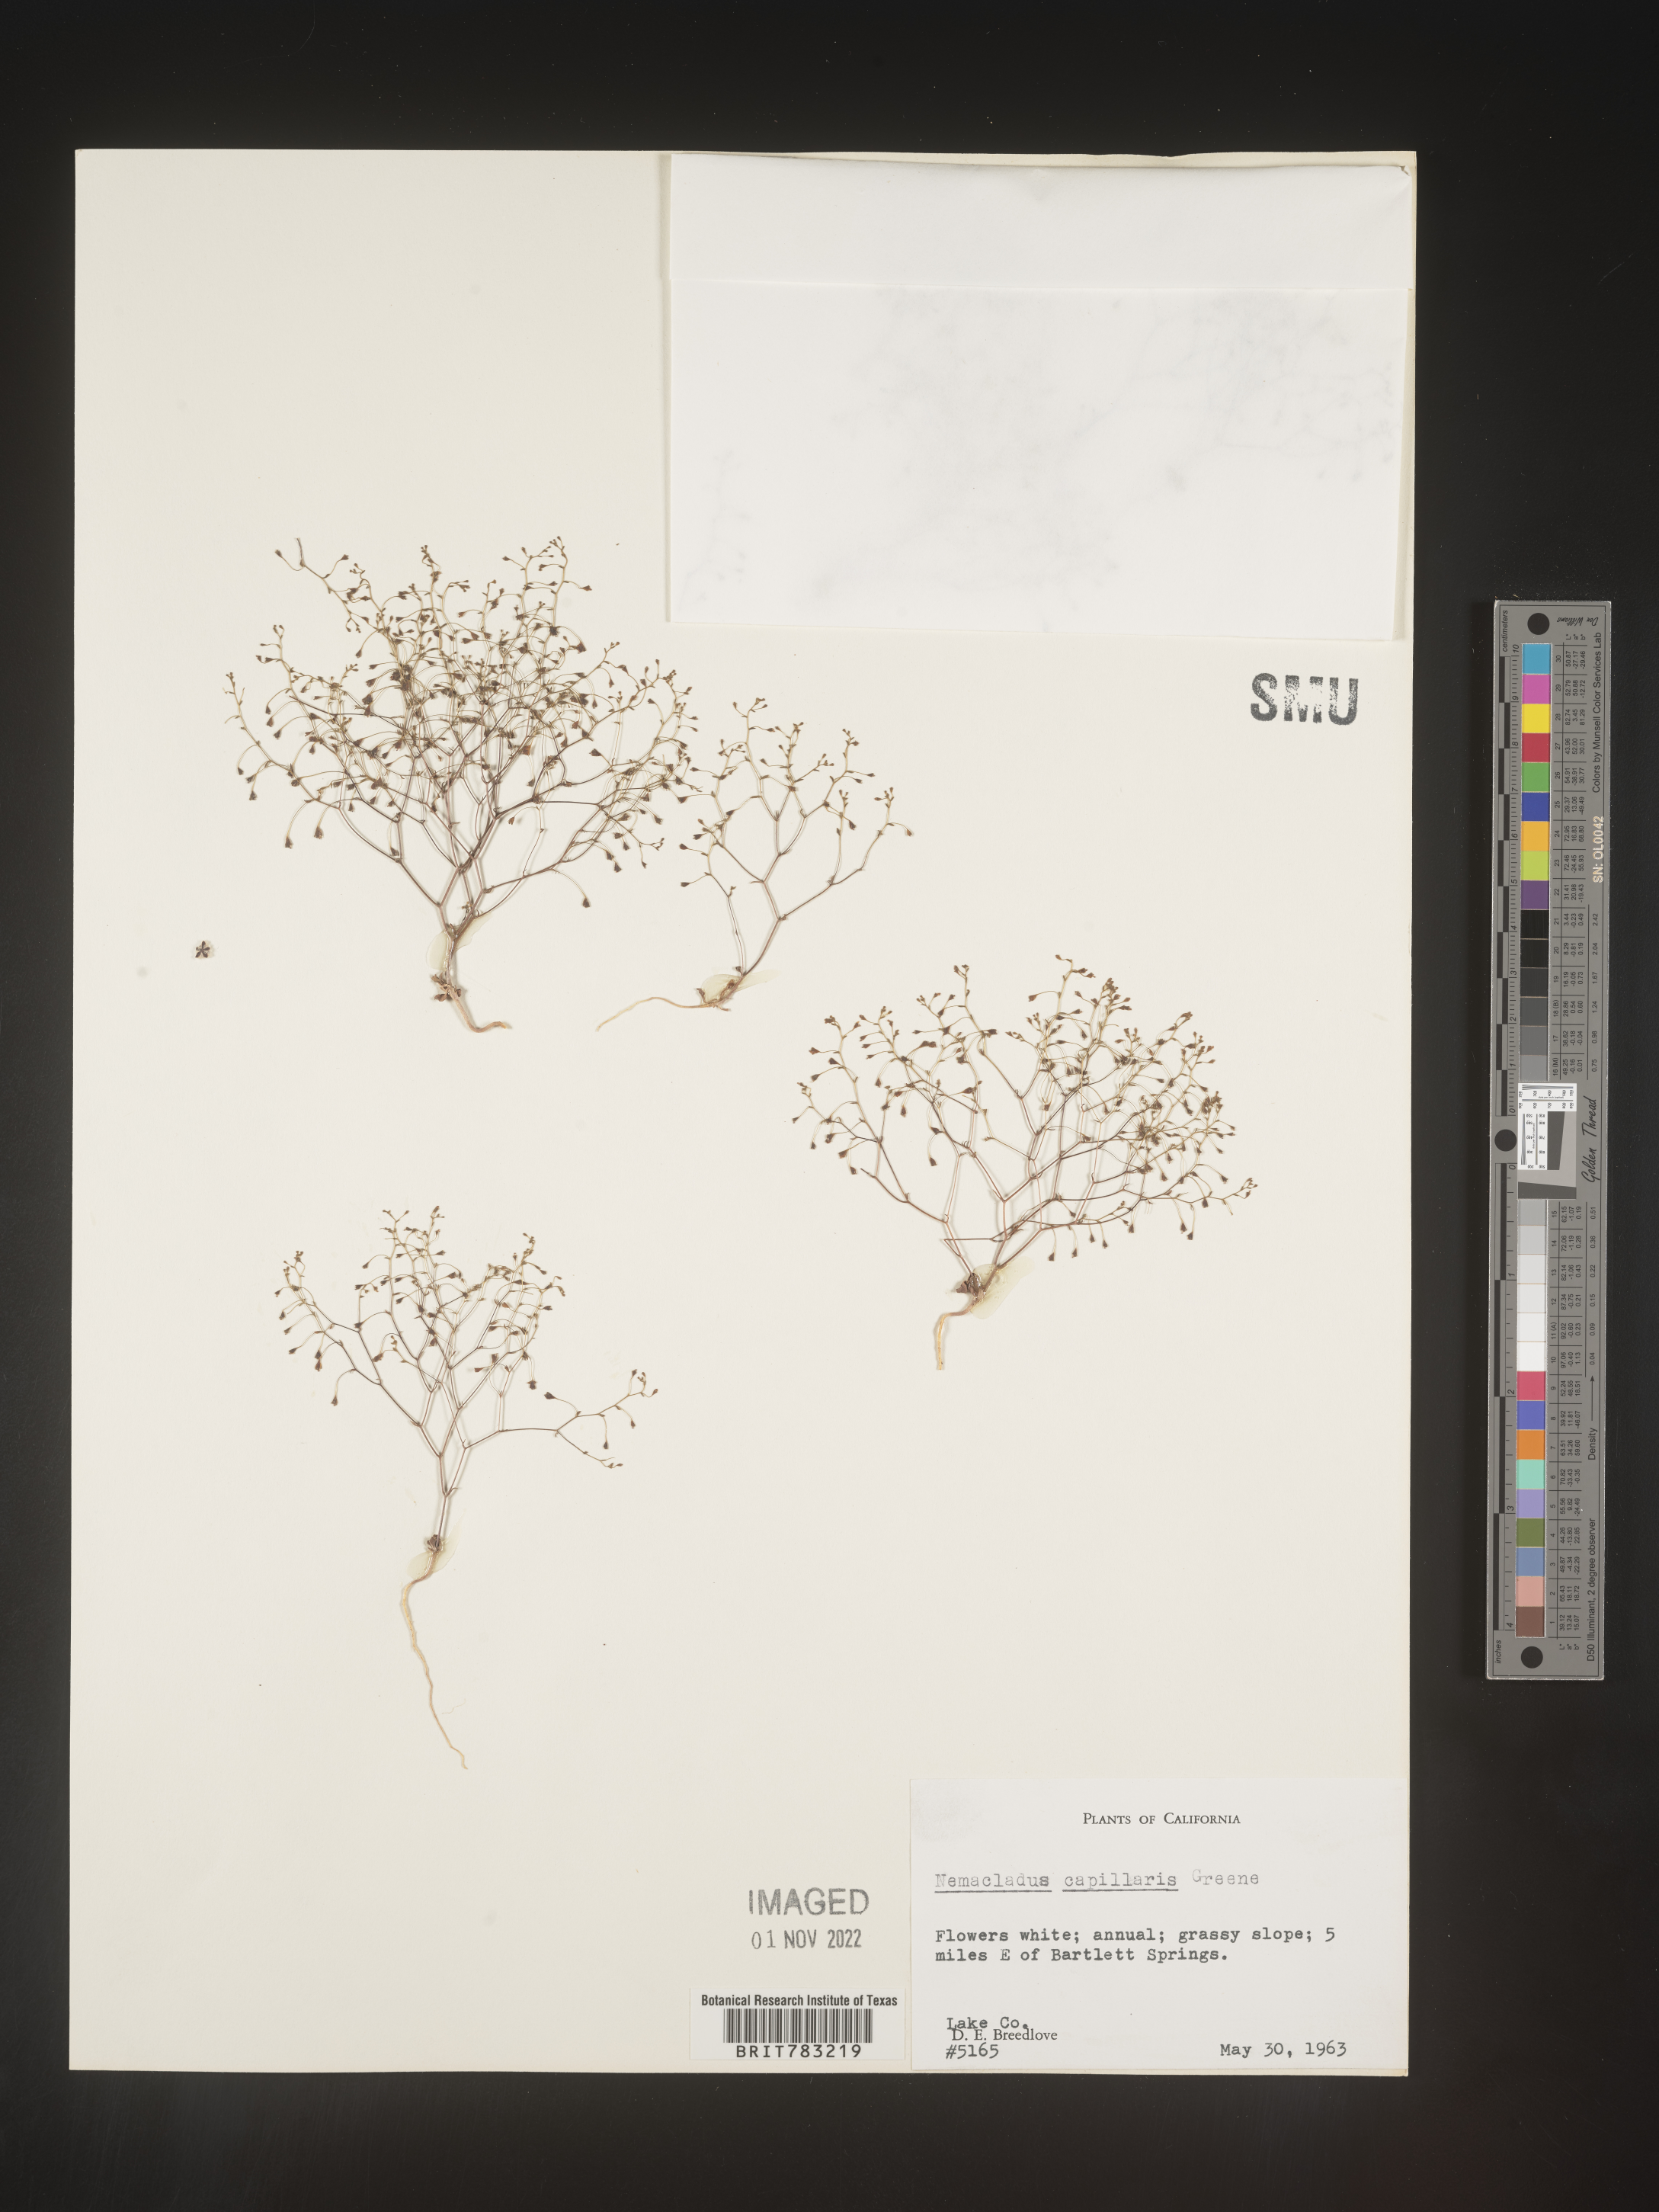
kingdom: Plantae
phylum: Tracheophyta
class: Magnoliopsida
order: Asterales
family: Campanulaceae
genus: Nemacladus
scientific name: Nemacladus
